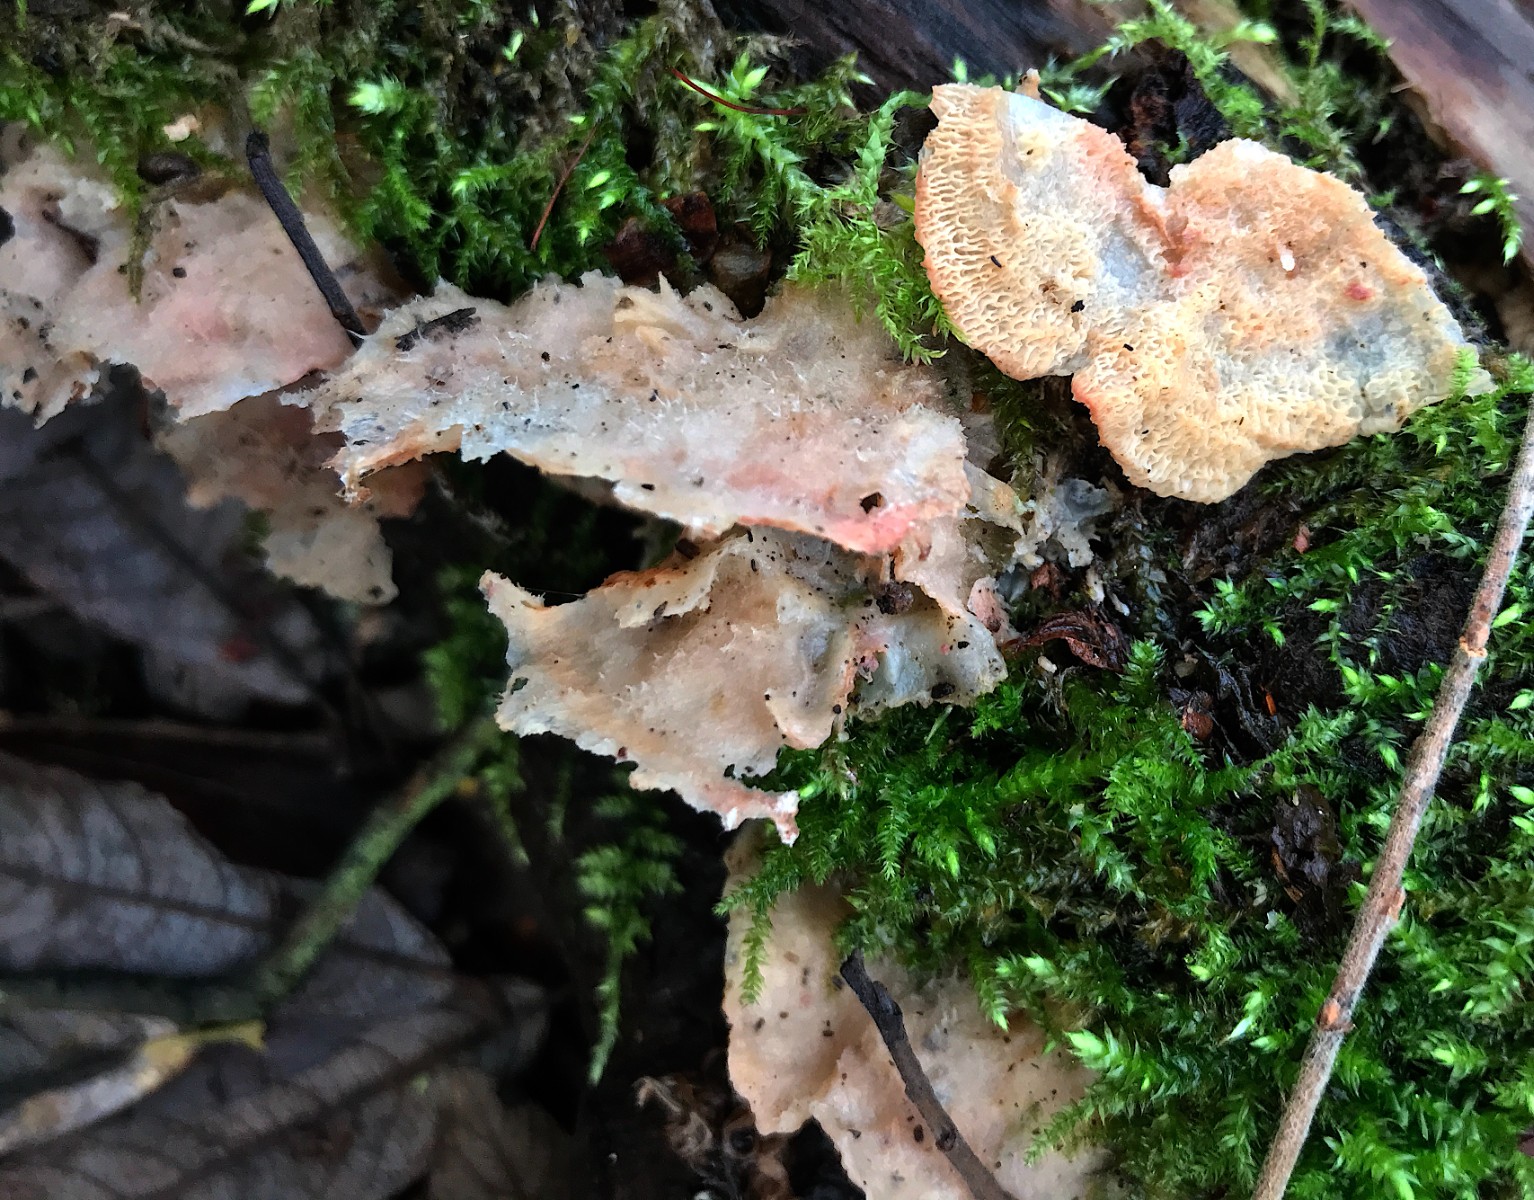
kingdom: Fungi
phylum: Basidiomycota
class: Agaricomycetes
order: Polyporales
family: Meruliaceae
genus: Phlebia
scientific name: Phlebia tremellosa
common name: bævrende åresvamp
